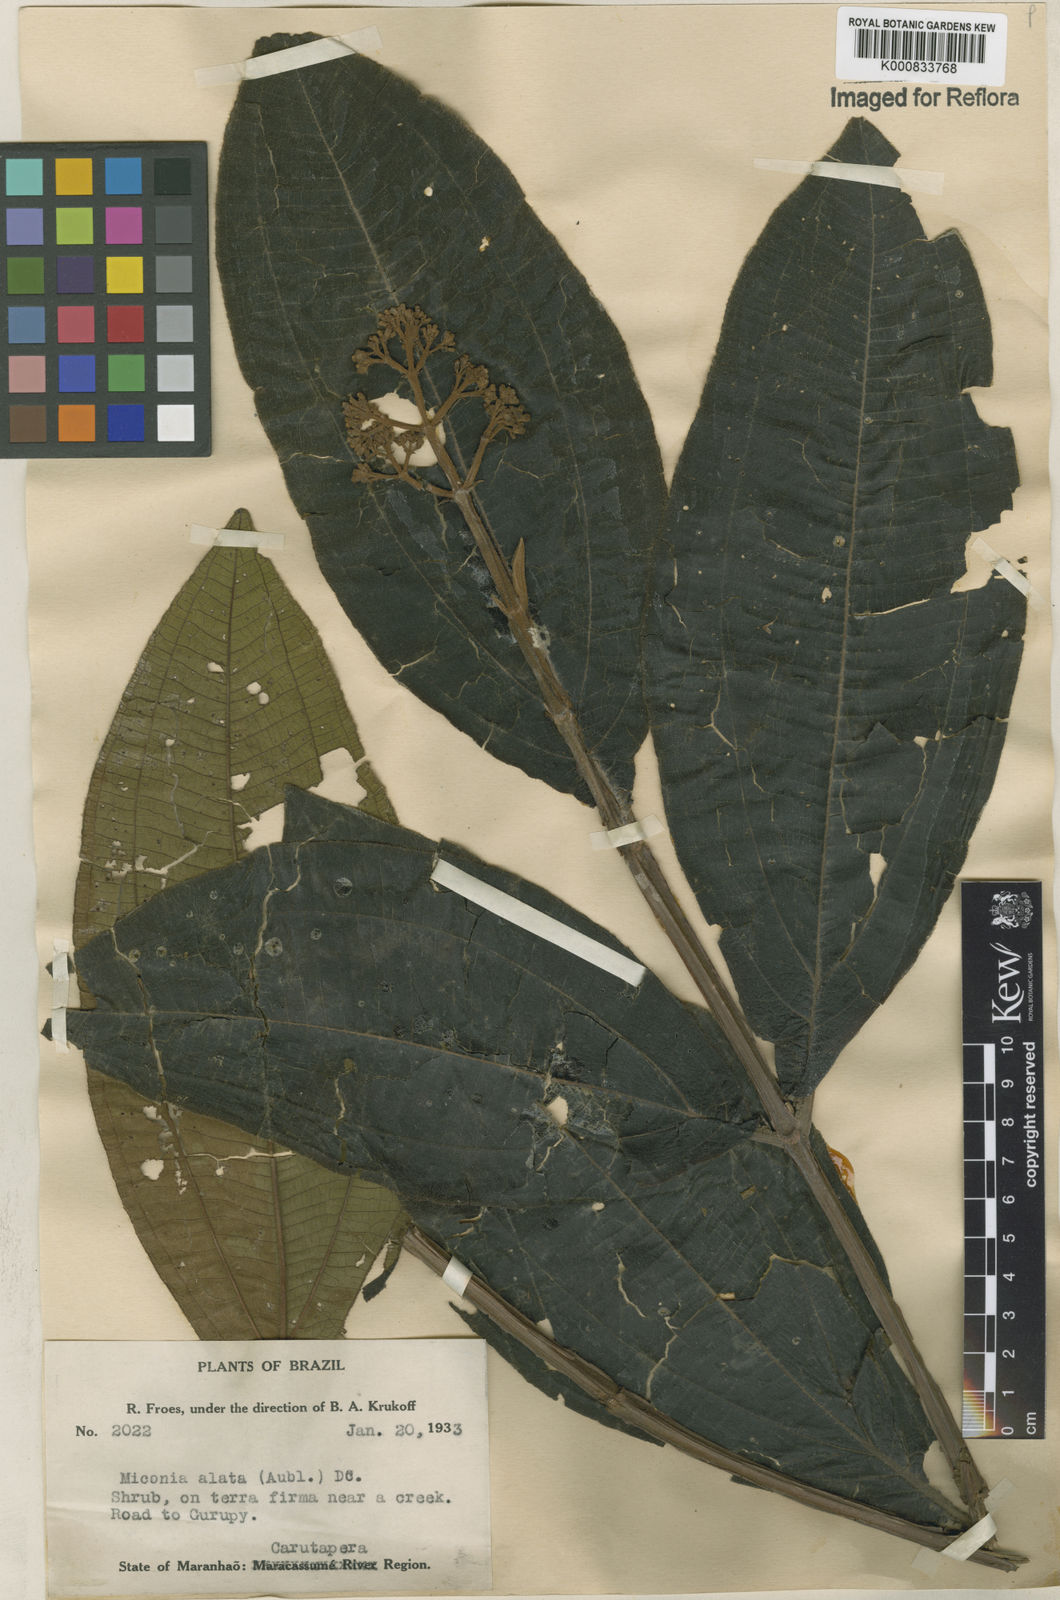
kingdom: Plantae
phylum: Tracheophyta
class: Magnoliopsida
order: Myrtales
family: Melastomataceae
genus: Miconia
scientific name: Miconia alata
